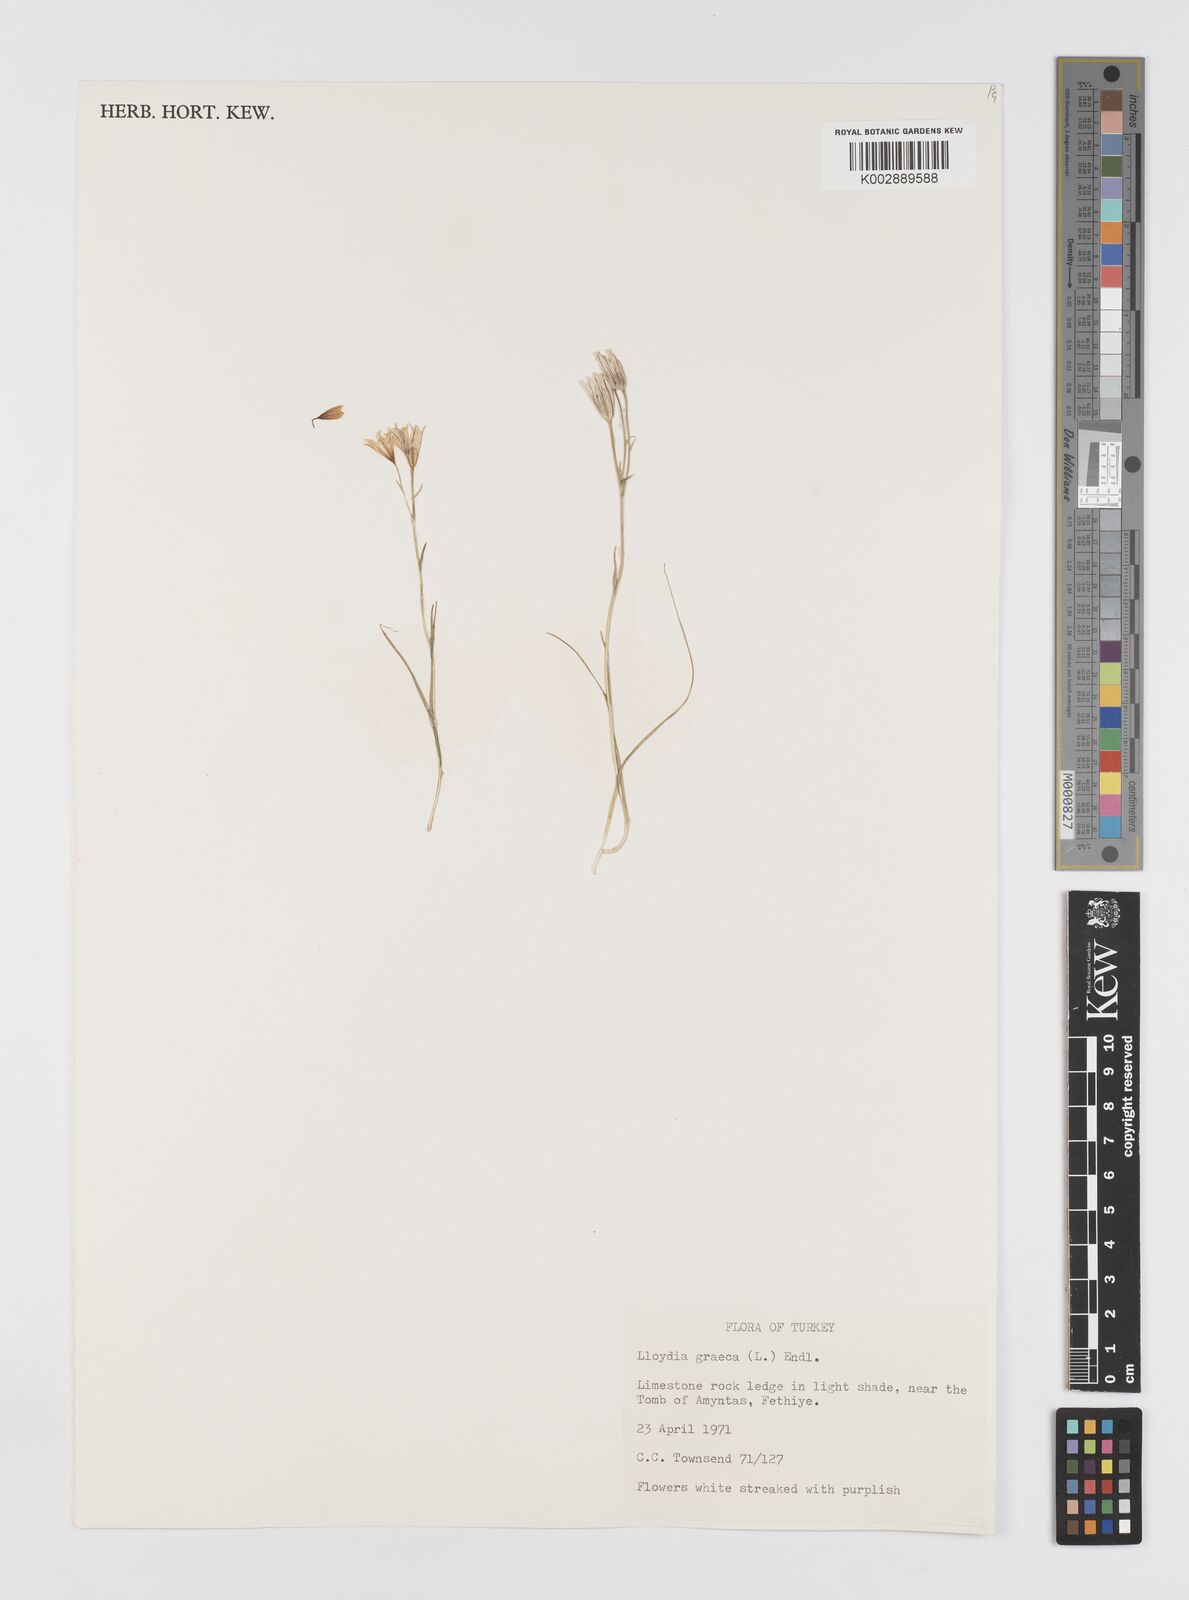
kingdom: Plantae
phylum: Tracheophyta
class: Liliopsida
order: Liliales
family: Liliaceae
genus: Gagea
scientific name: Gagea graeca
